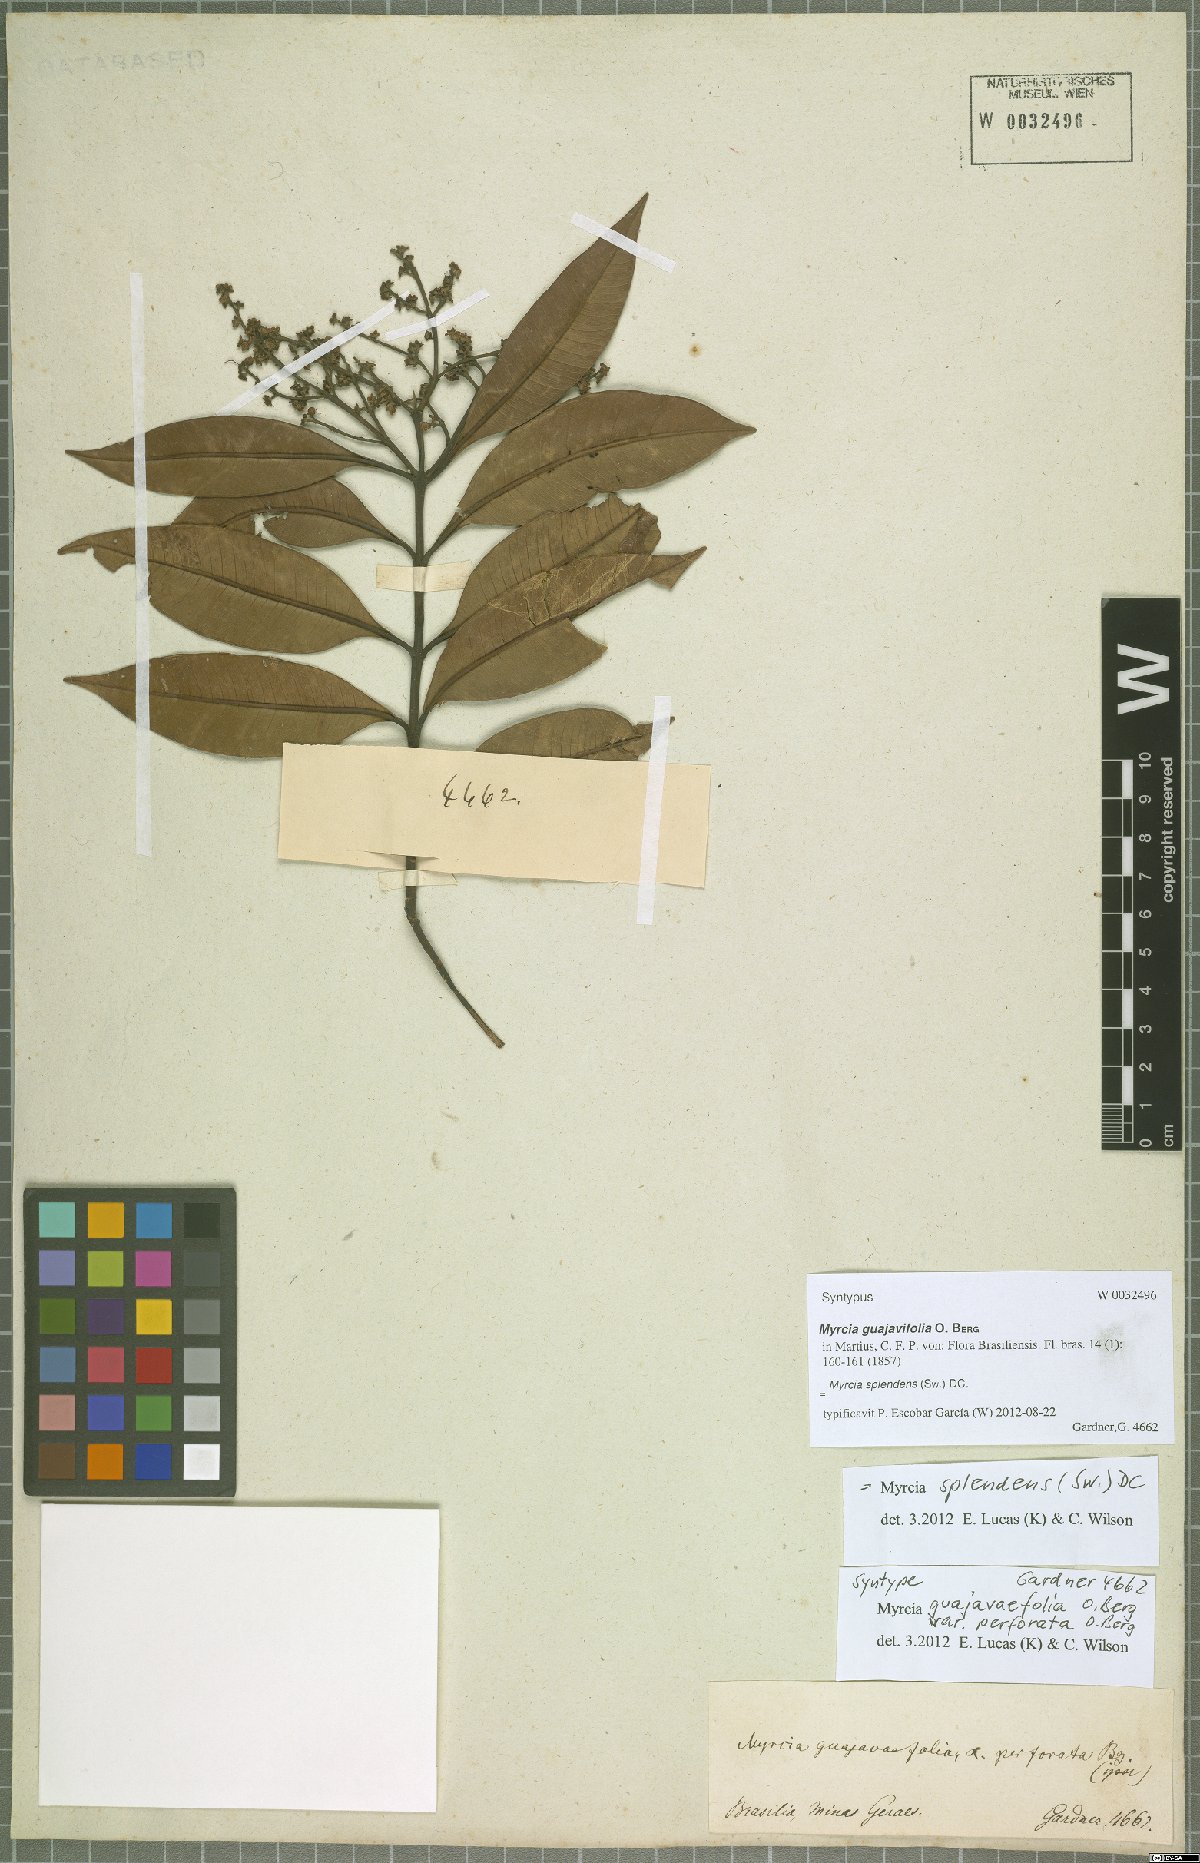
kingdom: Plantae
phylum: Tracheophyta
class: Magnoliopsida
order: Myrtales
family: Myrtaceae
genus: Myrcia
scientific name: Myrcia splendens
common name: Surinam cherry
